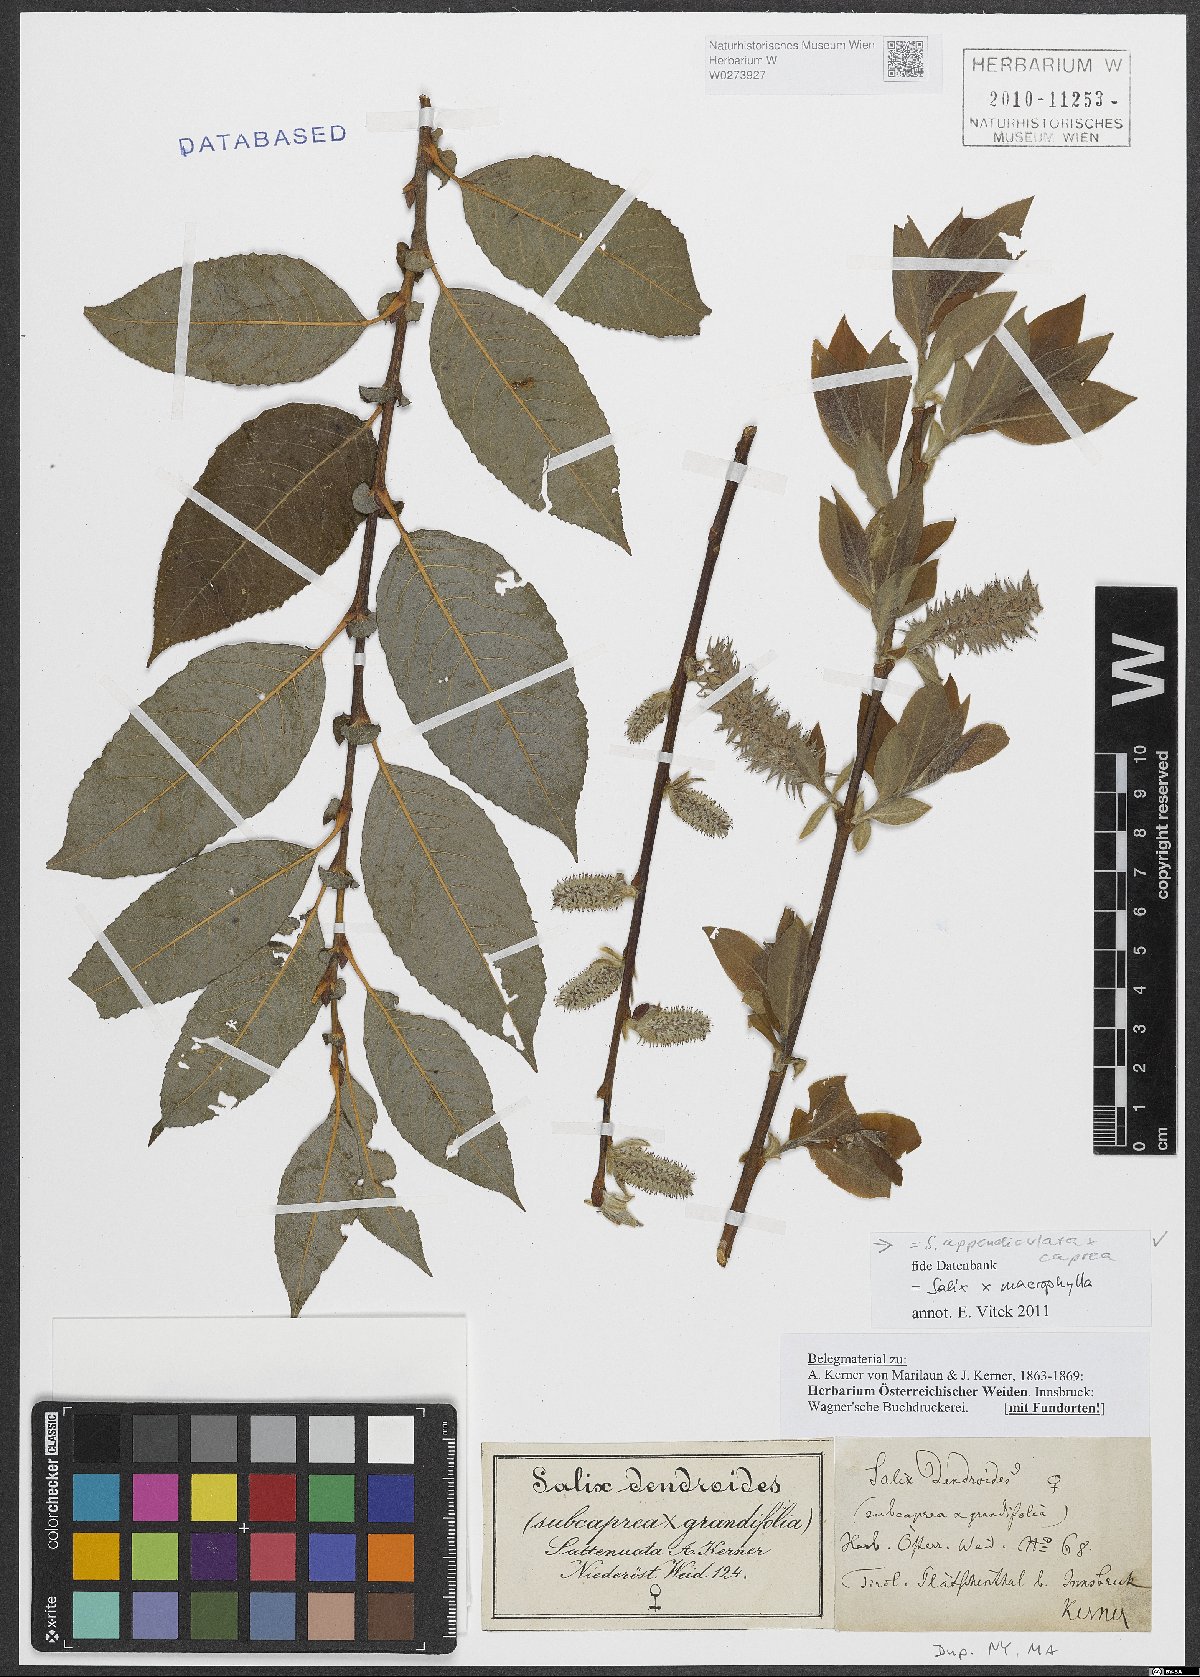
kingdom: Plantae
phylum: Tracheophyta
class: Magnoliopsida
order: Malpighiales
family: Salicaceae
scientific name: Salicaceae
